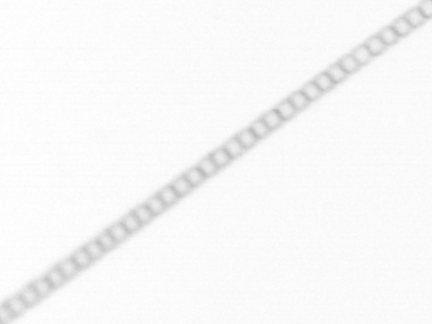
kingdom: Chromista
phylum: Ochrophyta
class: Bacillariophyceae
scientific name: Bacillariophyceae
